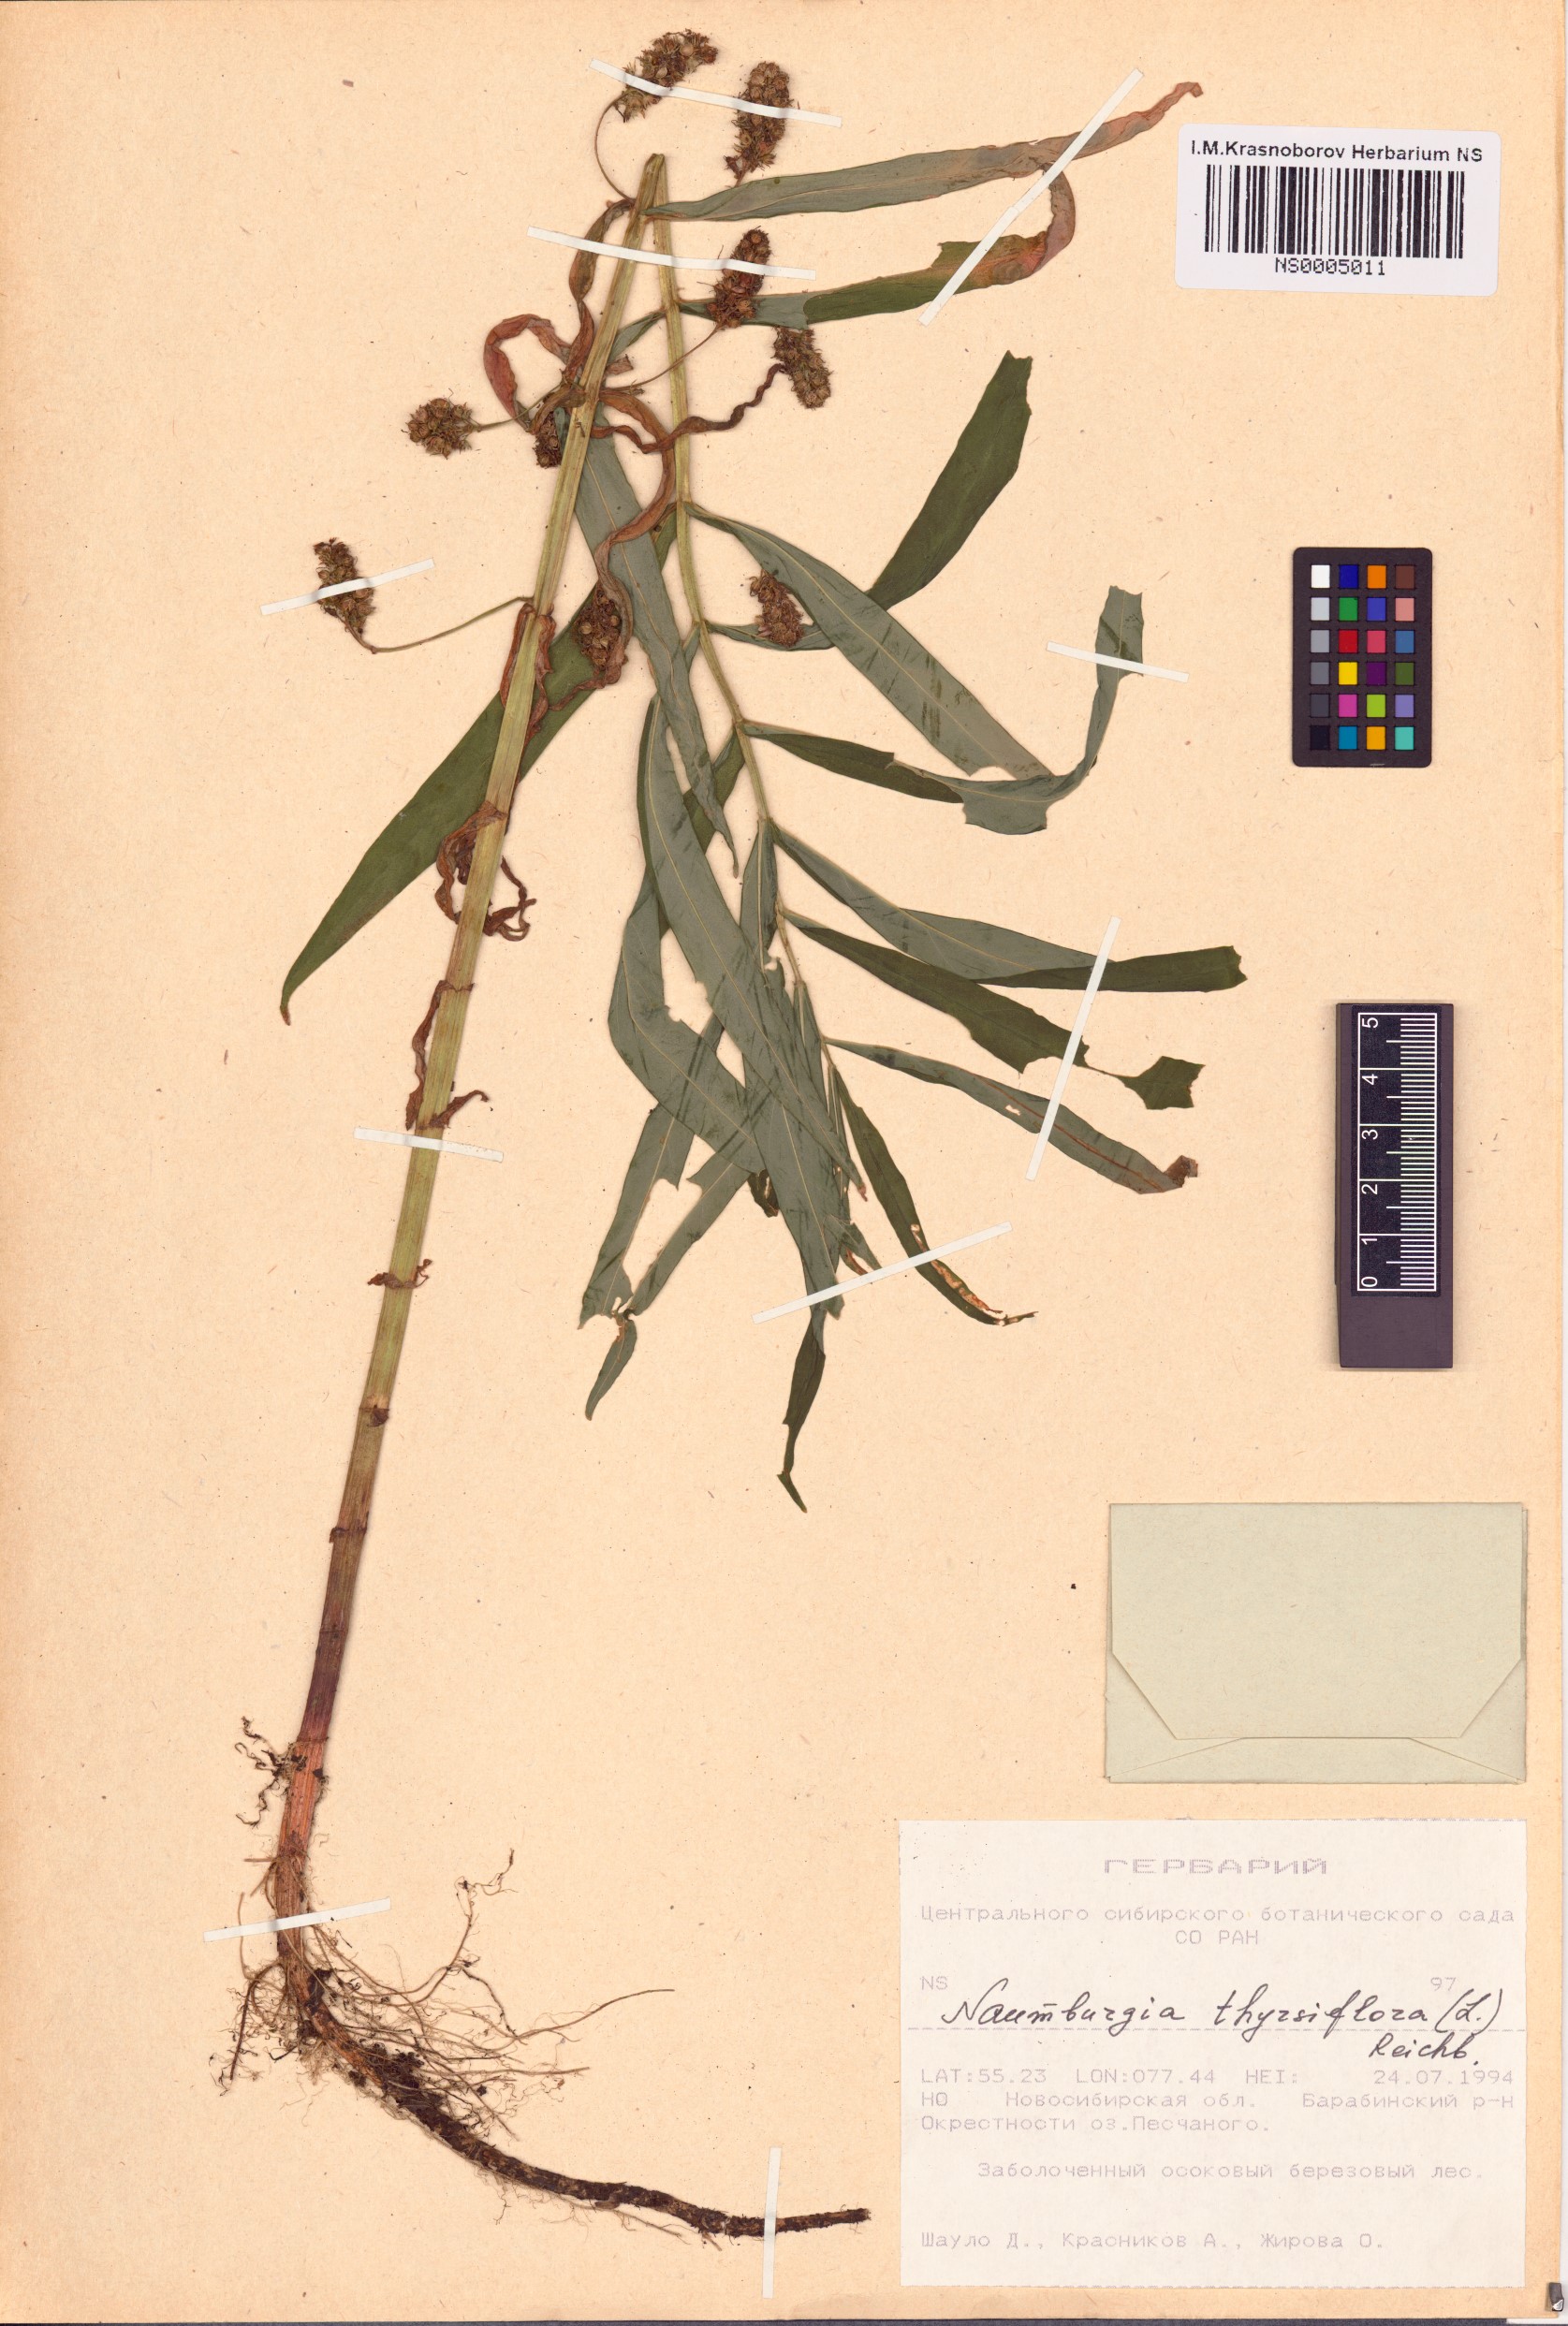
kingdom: Plantae
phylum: Tracheophyta
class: Magnoliopsida
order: Ericales
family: Primulaceae
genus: Lysimachia
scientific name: Lysimachia thyrsiflora
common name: Tufted loosestrife
